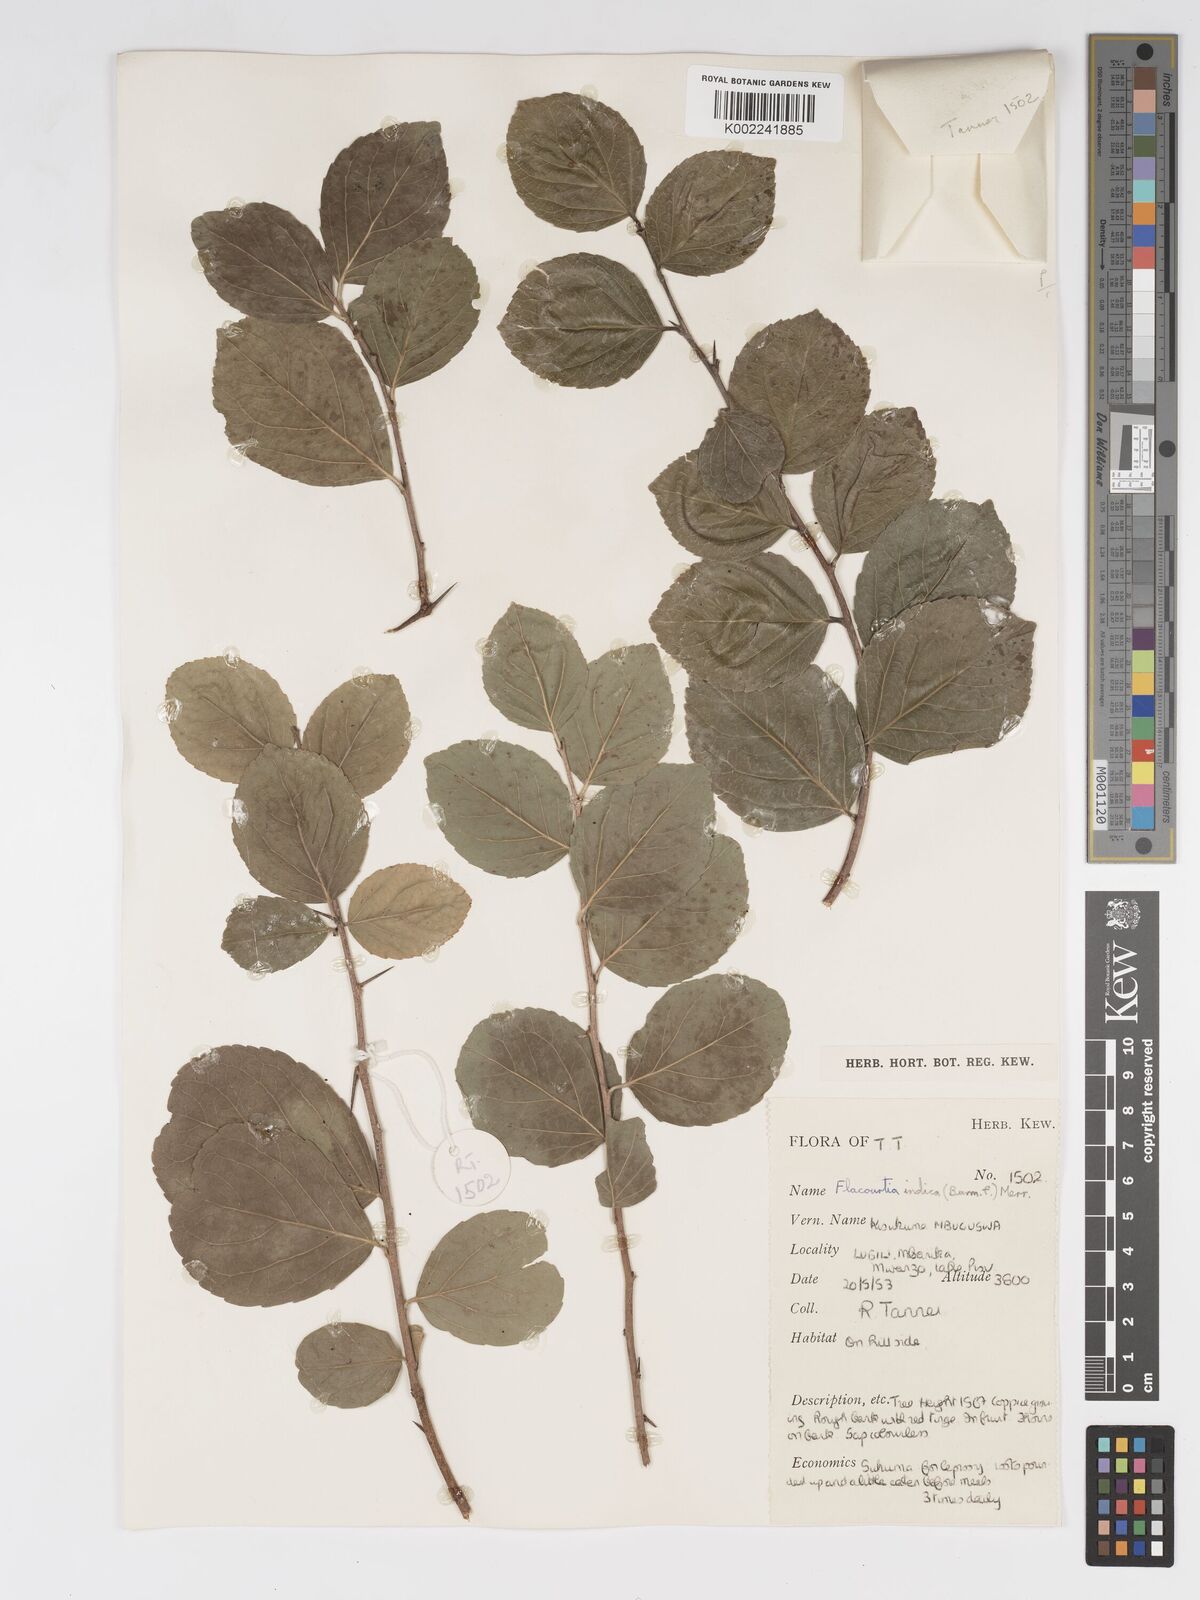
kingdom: Plantae
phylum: Tracheophyta
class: Magnoliopsida
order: Malpighiales
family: Salicaceae
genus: Flacourtia
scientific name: Flacourtia indica
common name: Governor's plum
